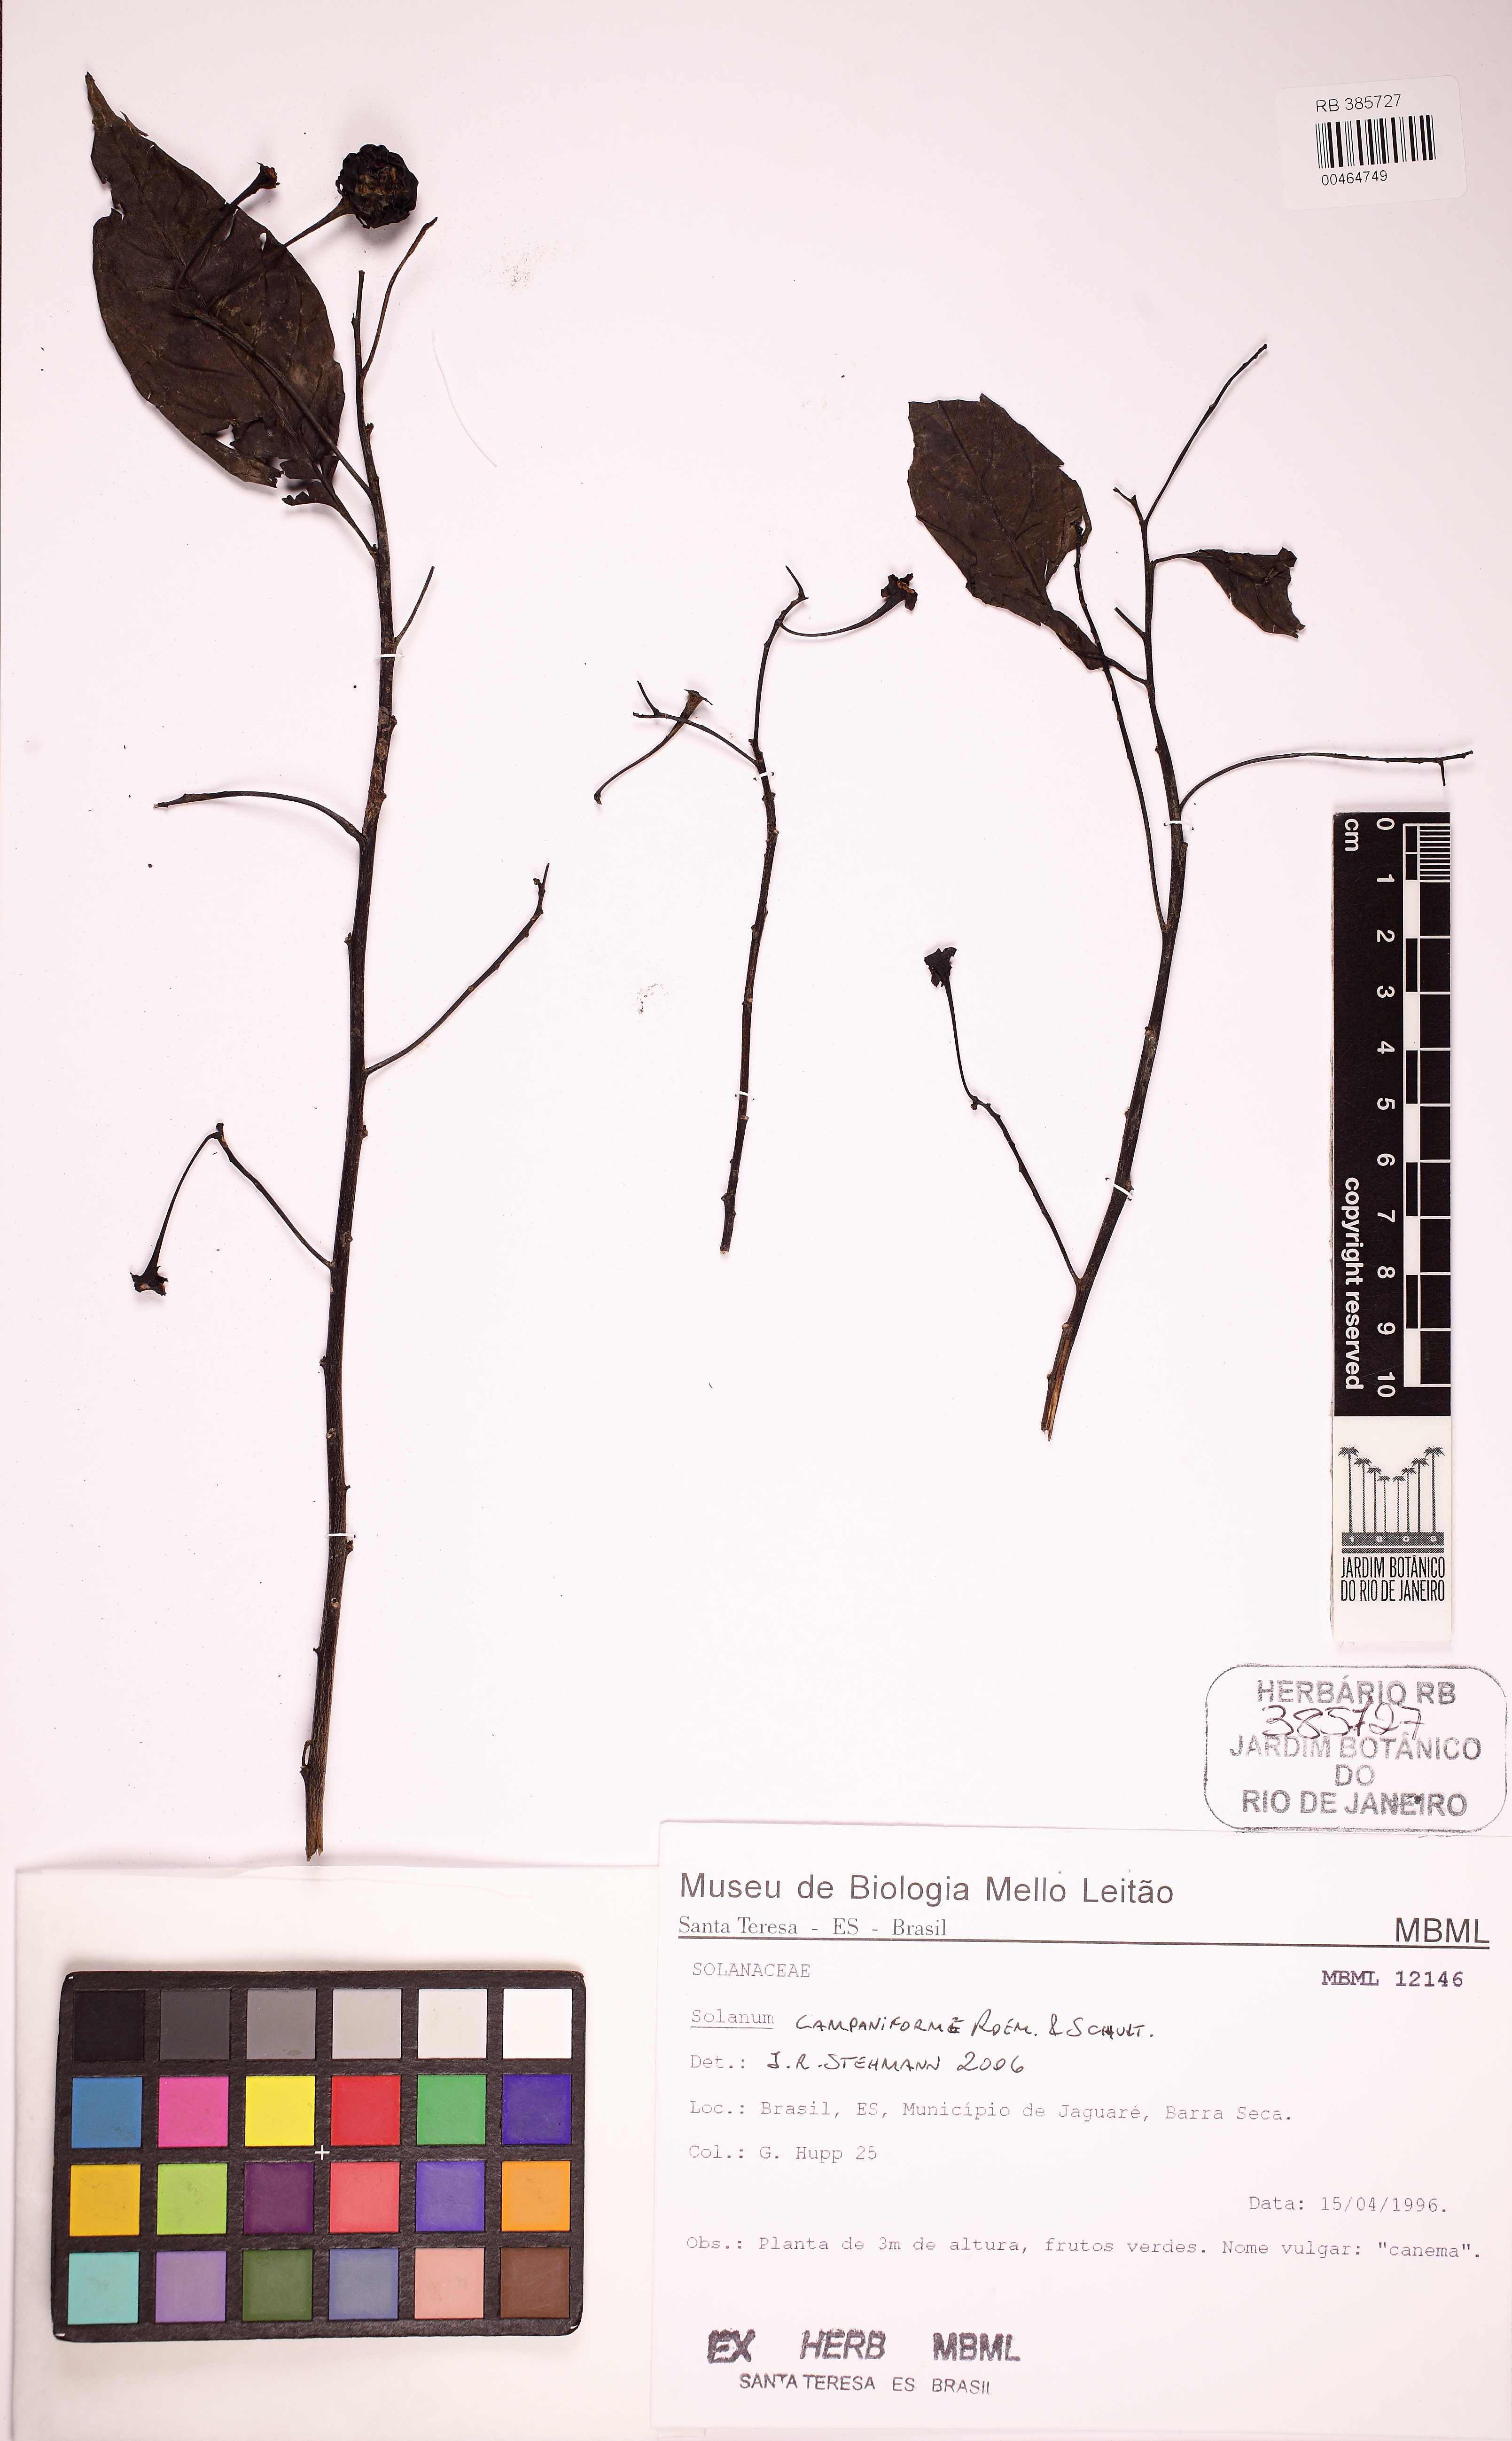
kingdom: Plantae
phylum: Tracheophyta
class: Magnoliopsida
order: Solanales
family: Solanaceae
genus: Solanum
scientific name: Solanum campaniforme
